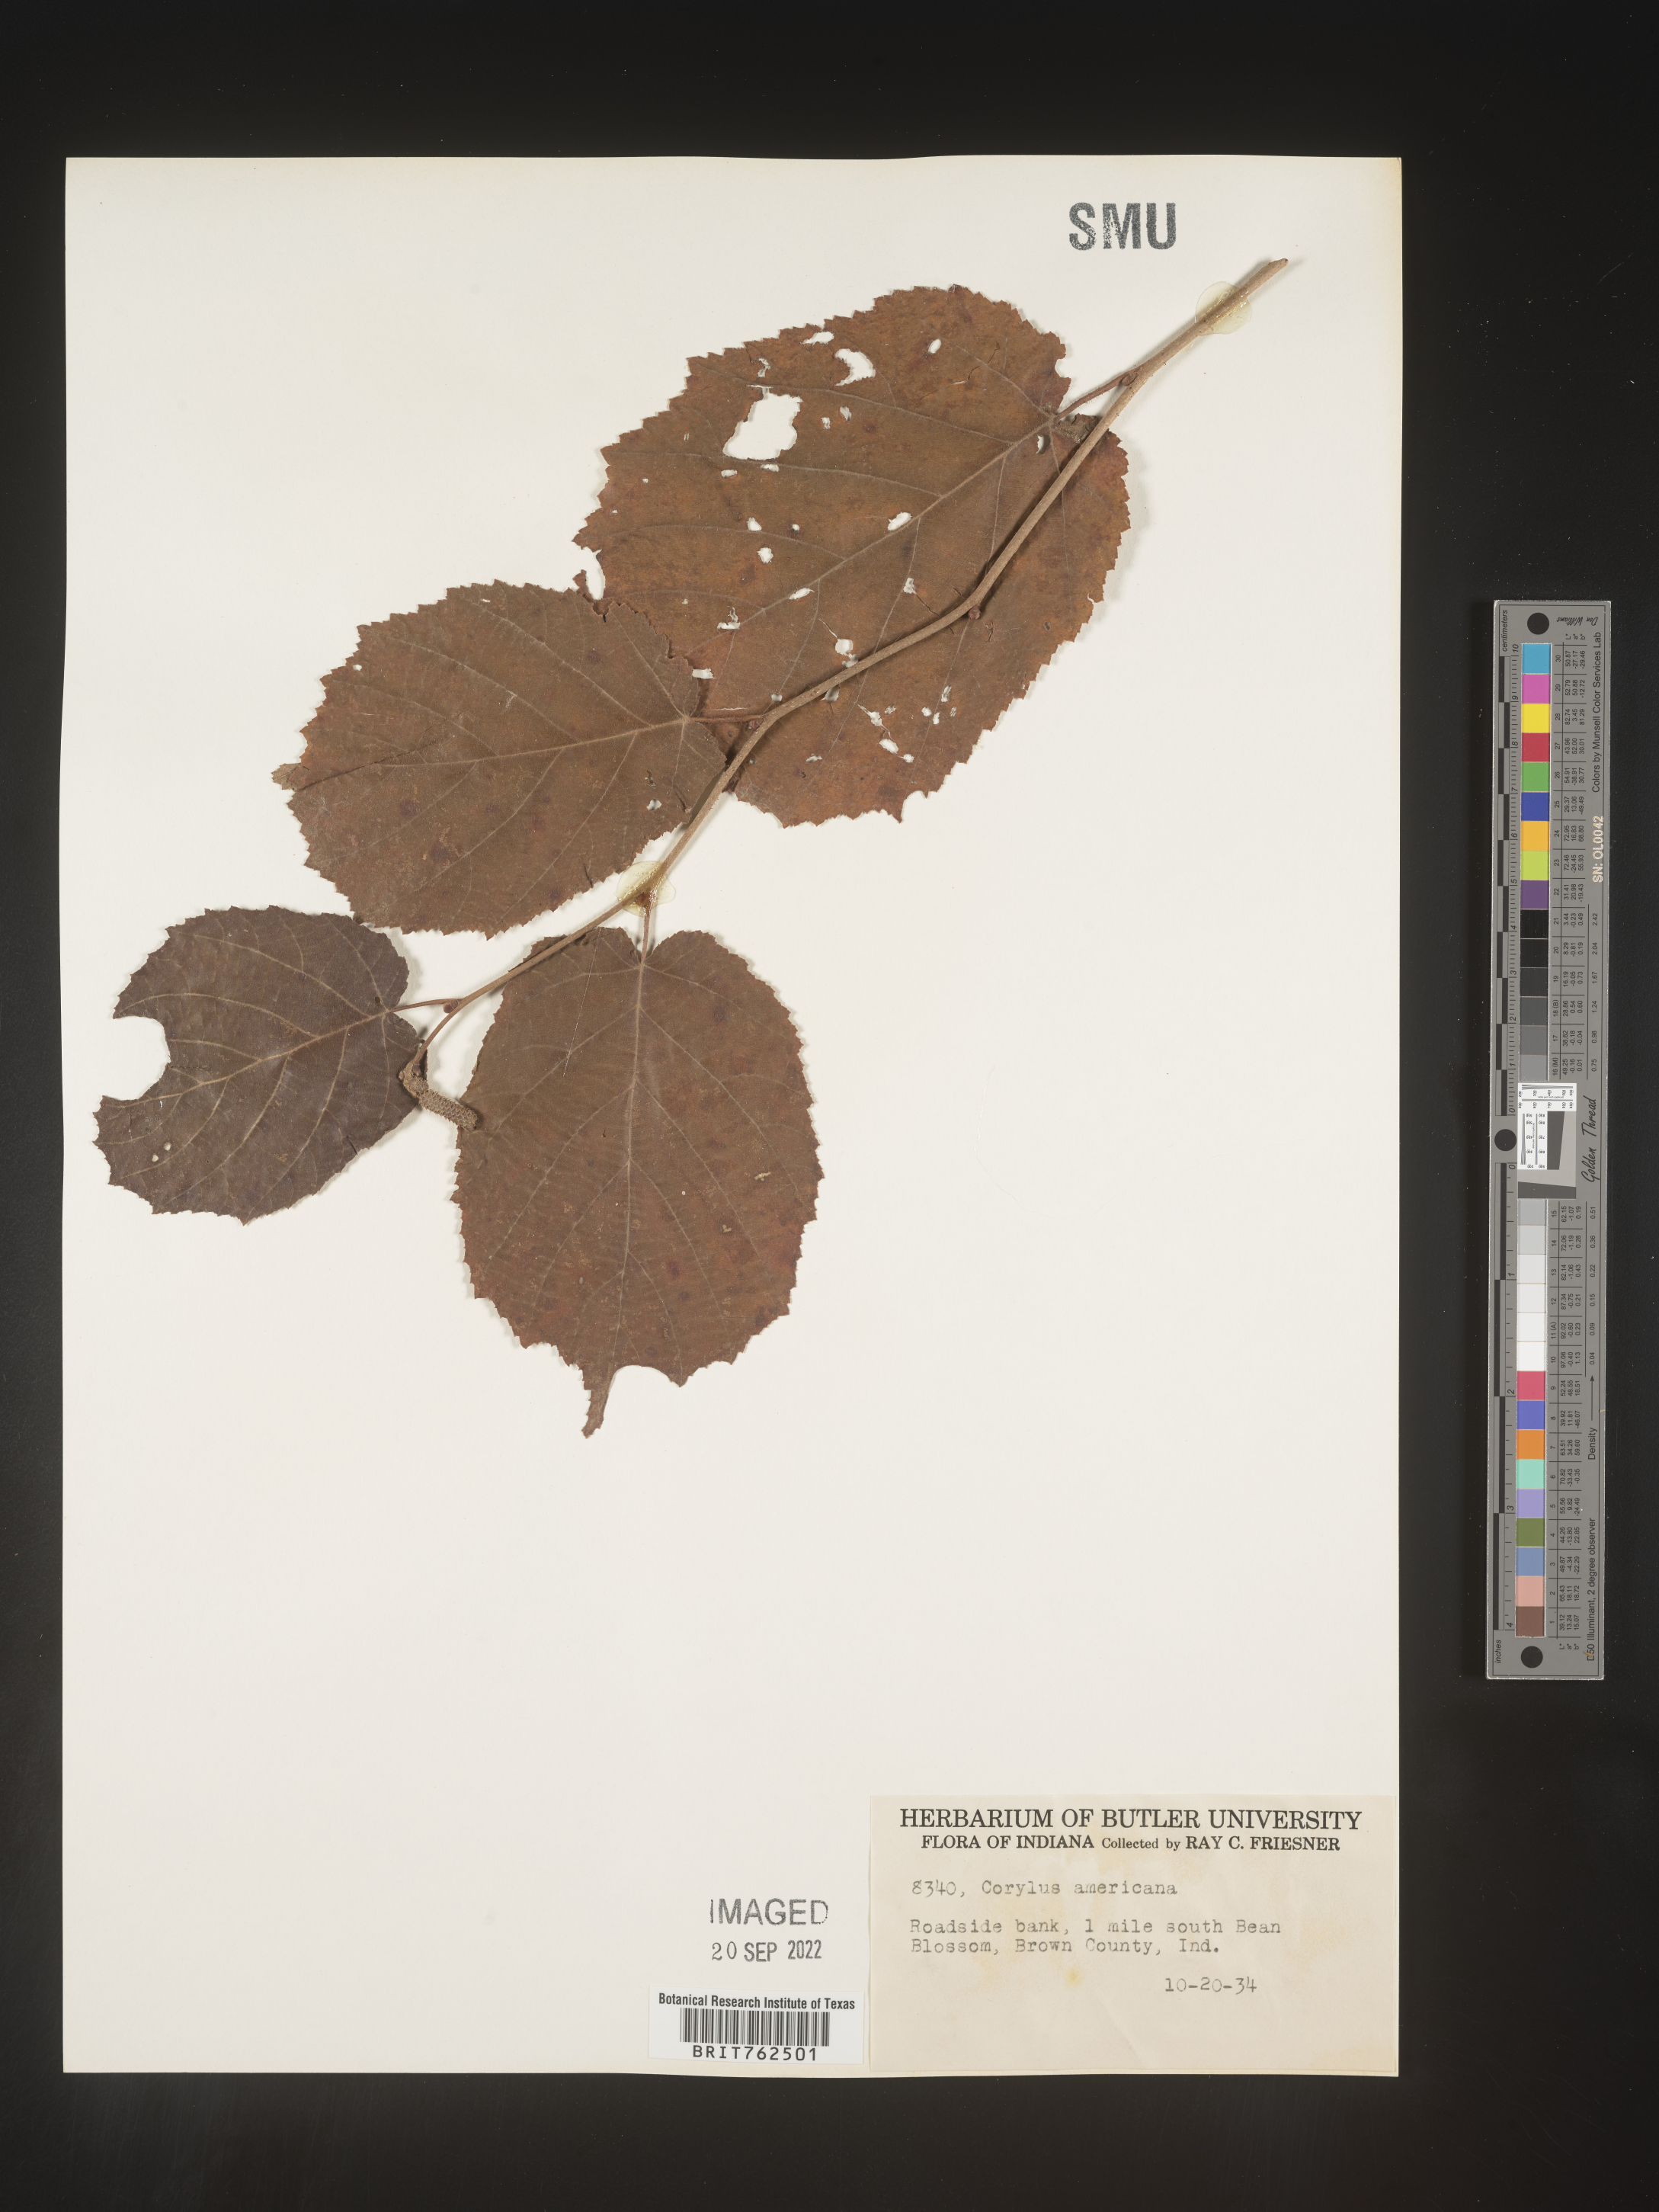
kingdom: Plantae
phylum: Tracheophyta
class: Magnoliopsida
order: Fagales
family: Betulaceae
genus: Corylus
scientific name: Corylus americana
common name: American hazel
